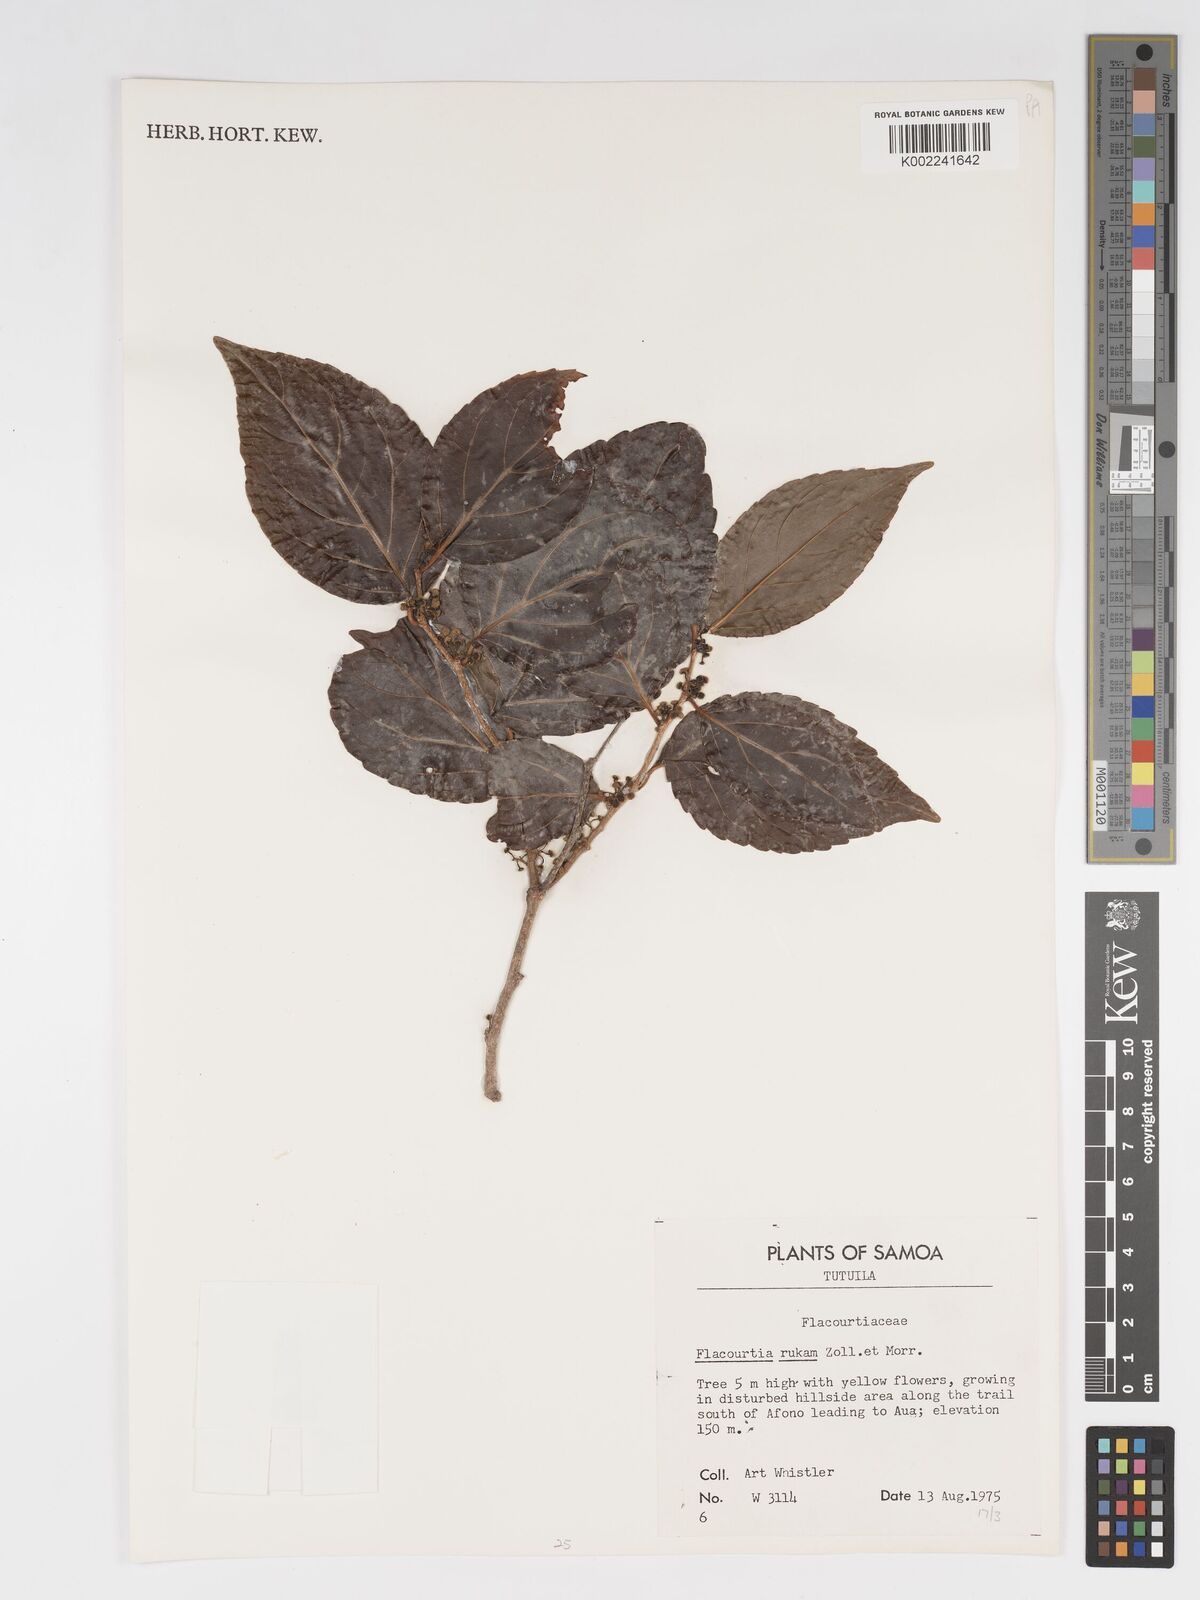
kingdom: Plantae
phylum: Tracheophyta
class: Magnoliopsida
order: Malpighiales
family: Salicaceae
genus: Flacourtia
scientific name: Flacourtia rukam
